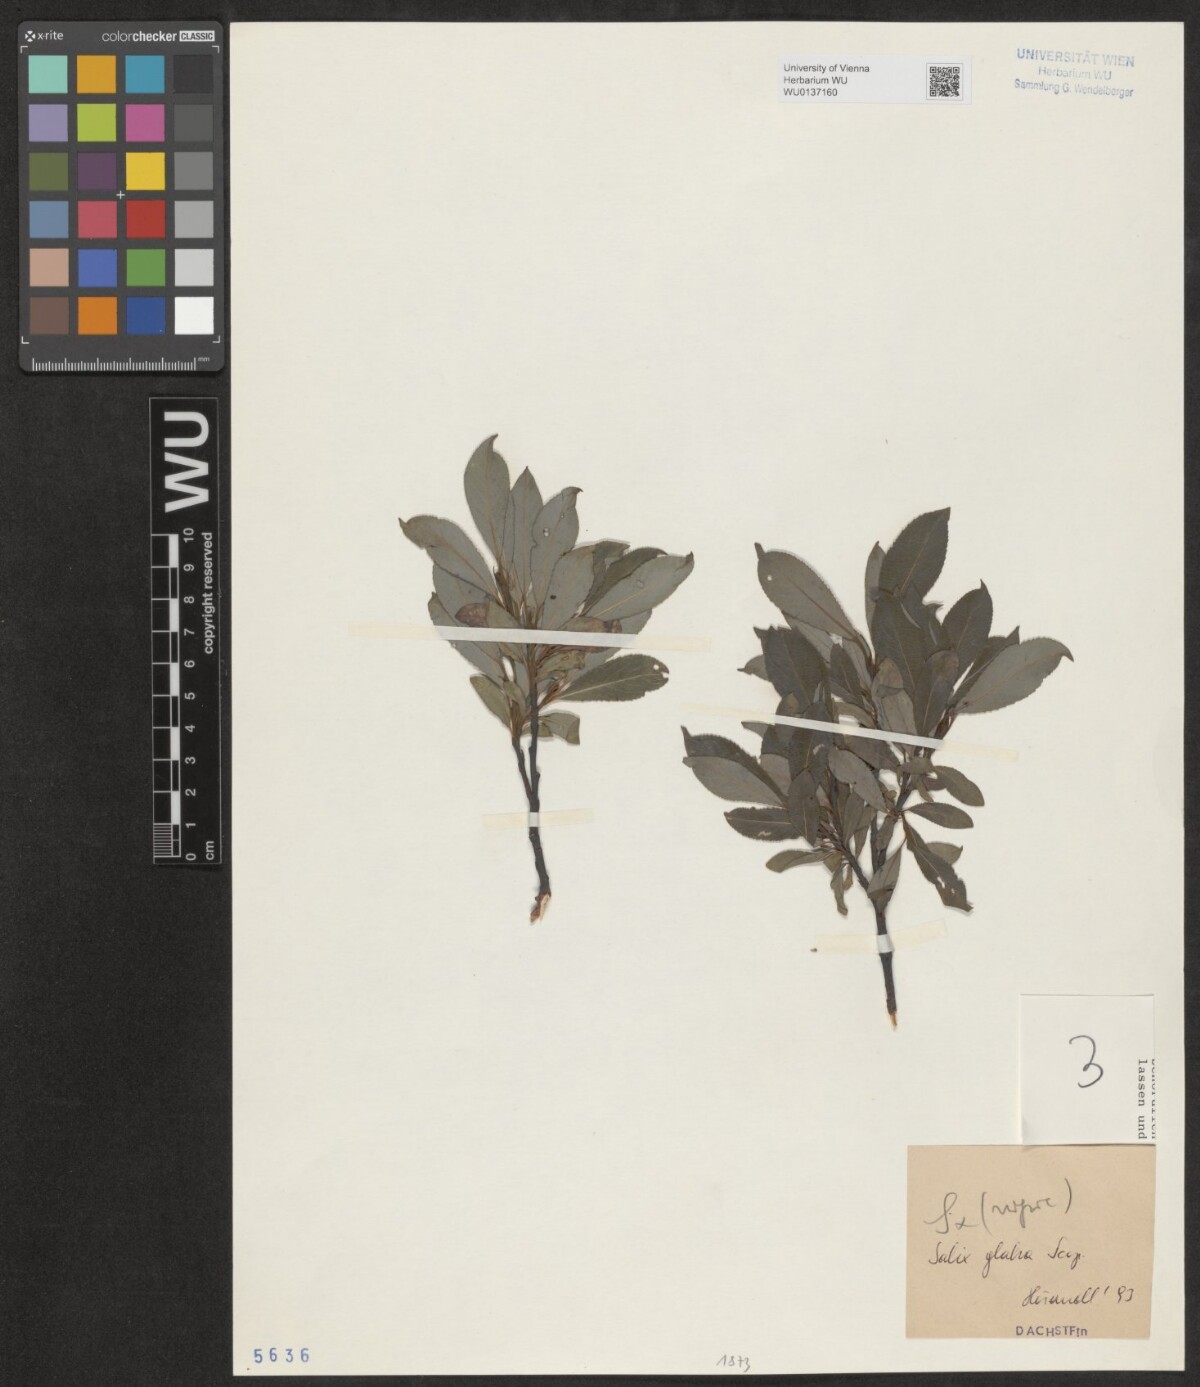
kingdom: Plantae
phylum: Tracheophyta
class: Magnoliopsida
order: Malpighiales
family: Salicaceae
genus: Salix
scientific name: Salix glabra
